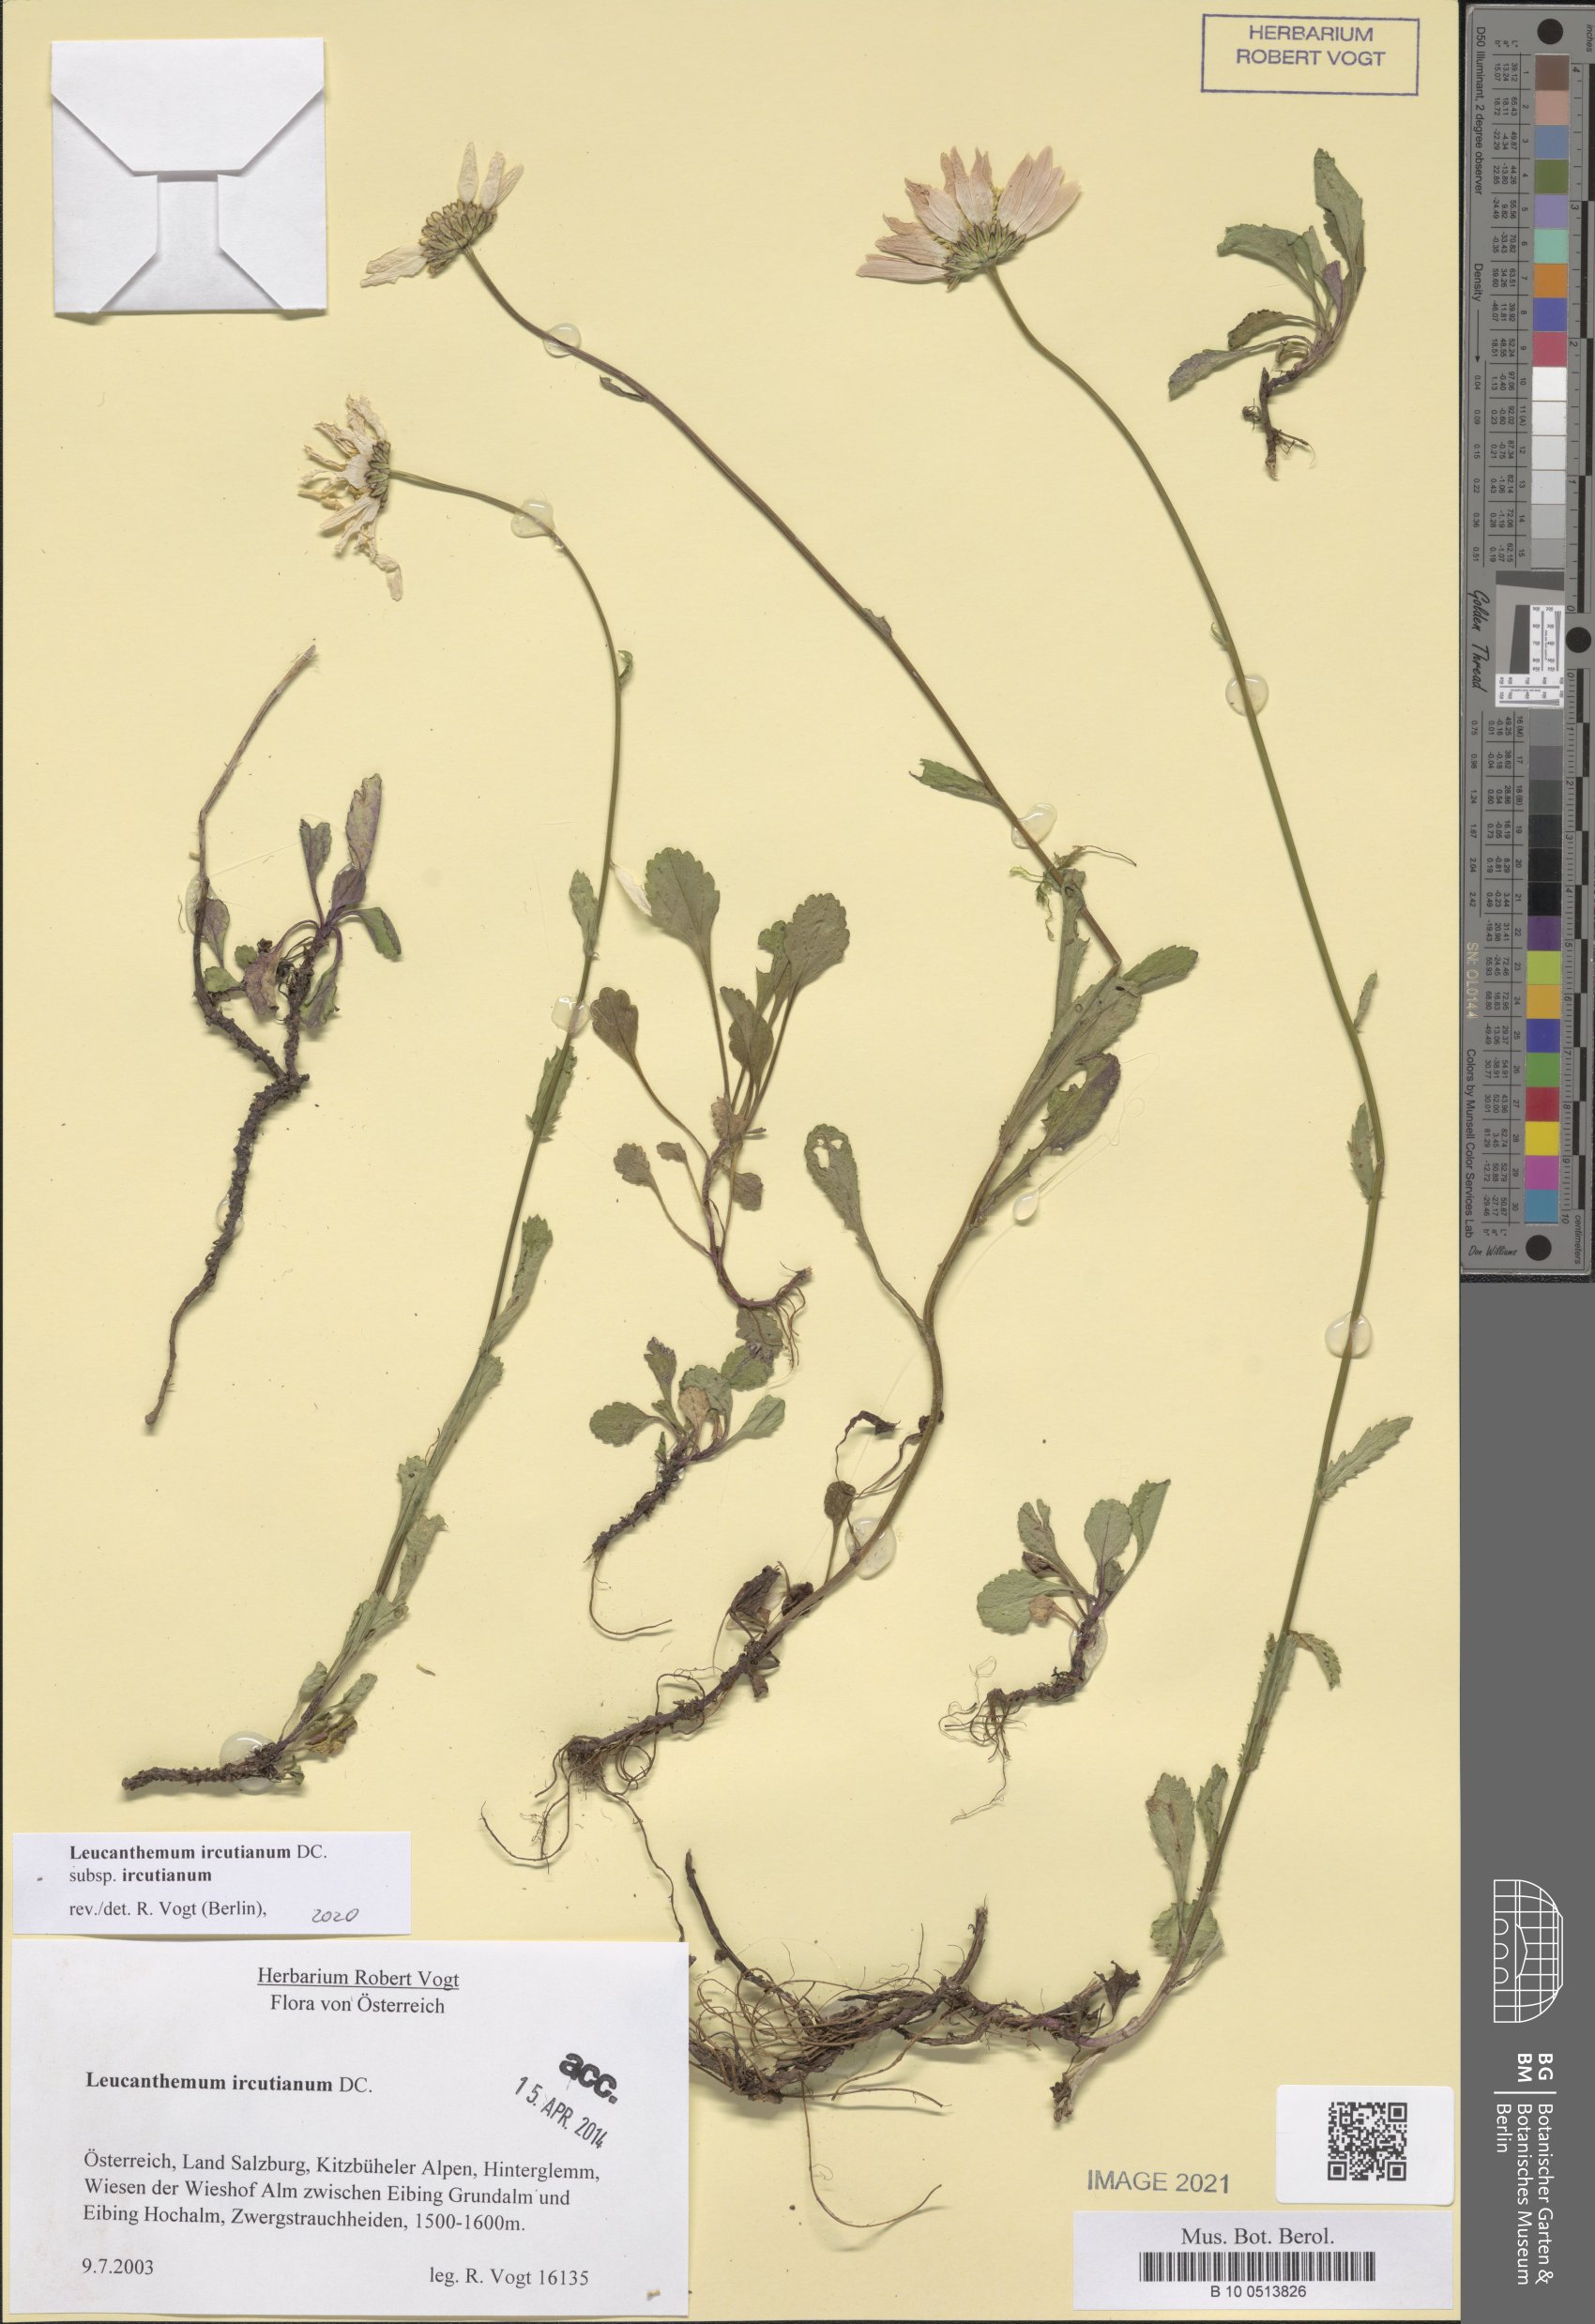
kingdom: Plantae
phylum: Tracheophyta
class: Magnoliopsida
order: Asterales
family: Asteraceae
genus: Leucanthemum
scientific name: Leucanthemum ircutianum
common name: Daisy
